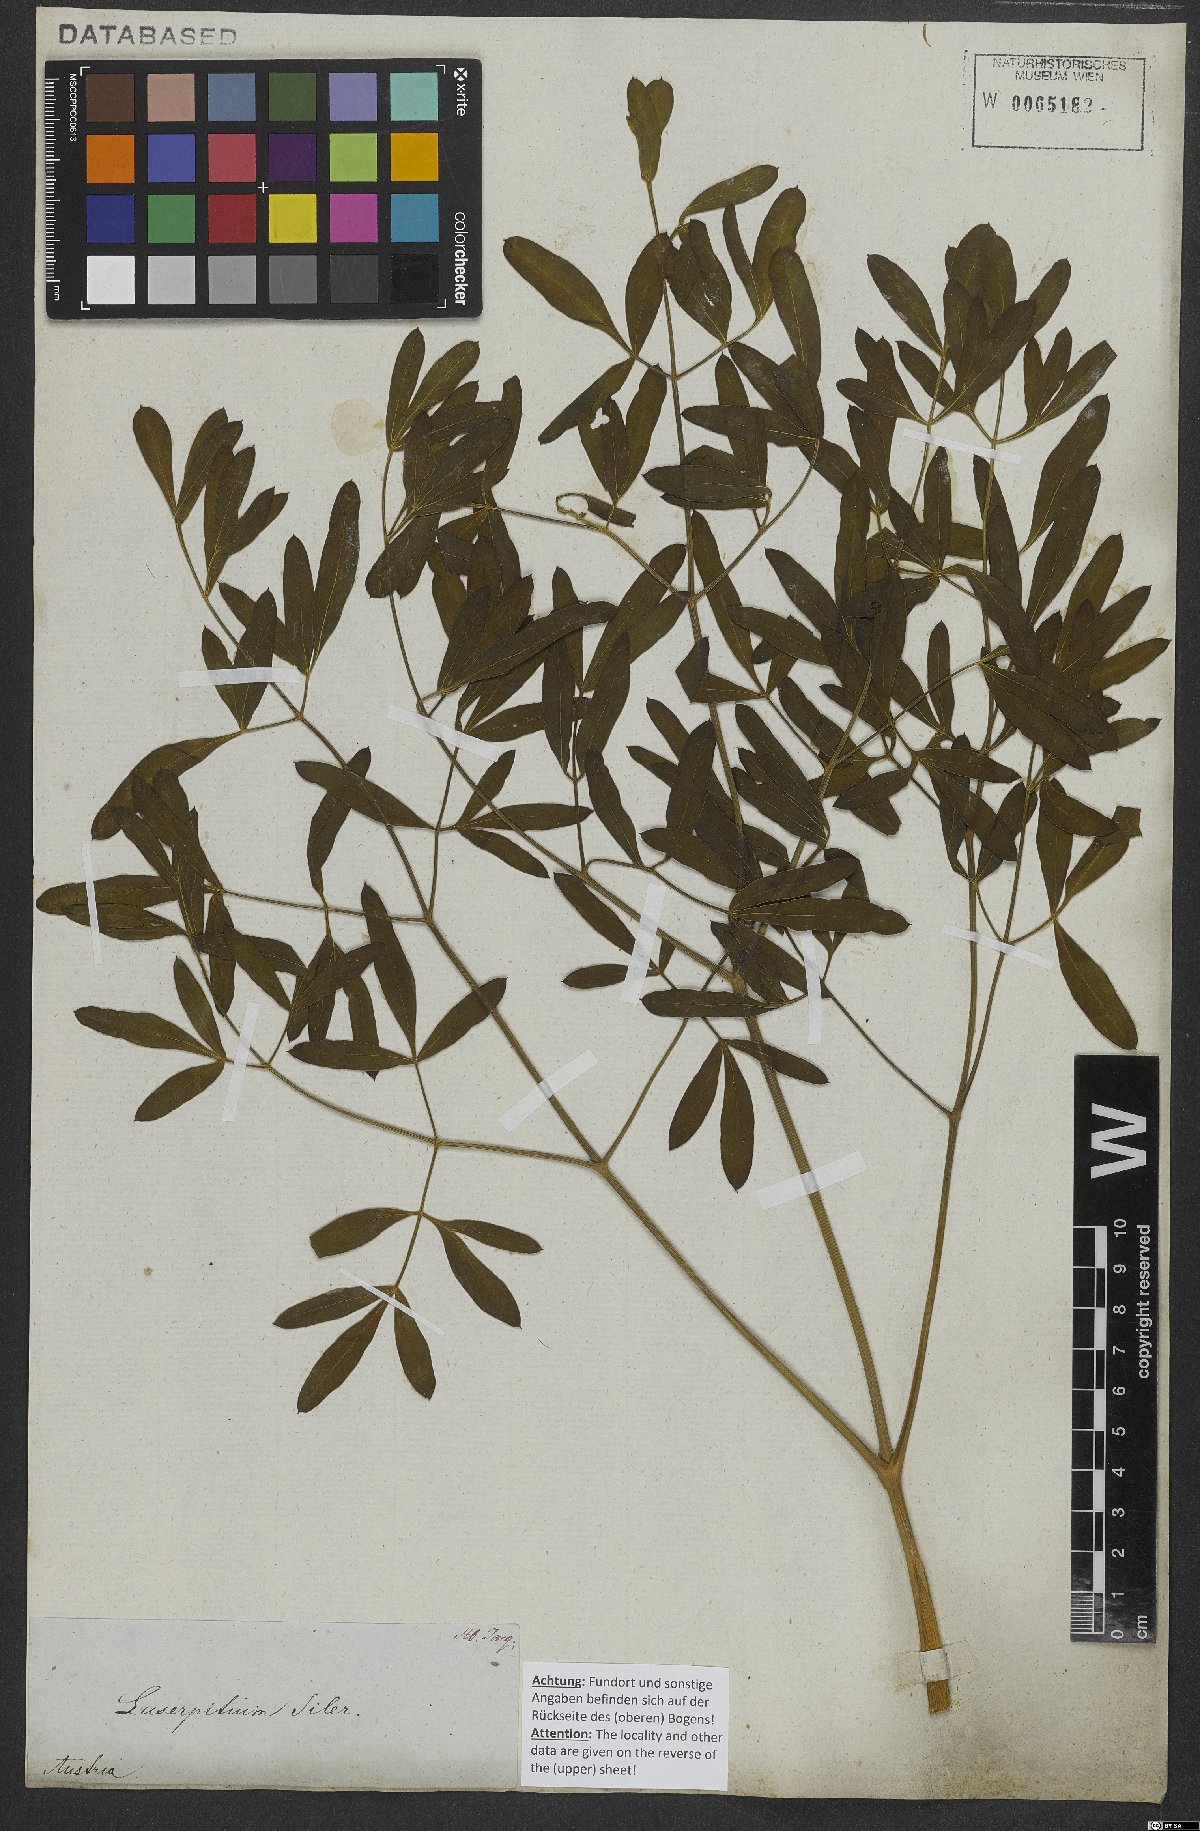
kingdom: Plantae
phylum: Tracheophyta
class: Magnoliopsida
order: Apiales
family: Apiaceae
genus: Siler
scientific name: Siler montanum
